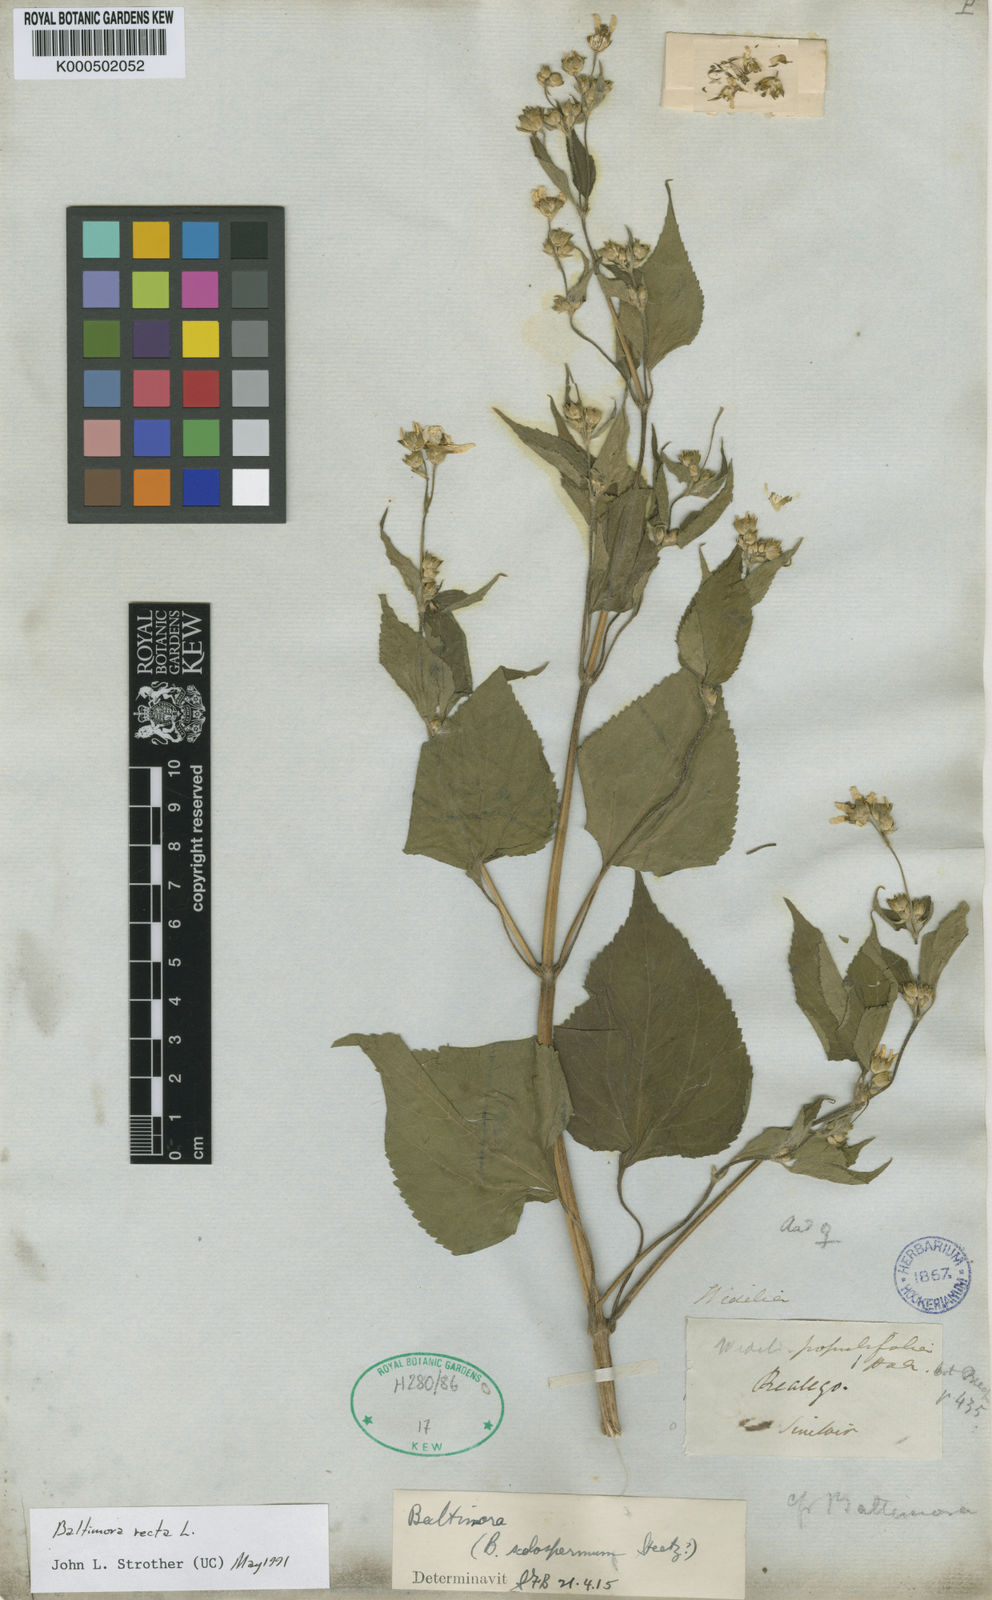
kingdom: Plantae
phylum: Tracheophyta
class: Magnoliopsida
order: Asterales
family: Asteraceae
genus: Baltimora
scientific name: Baltimora recta
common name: Beautyhead
